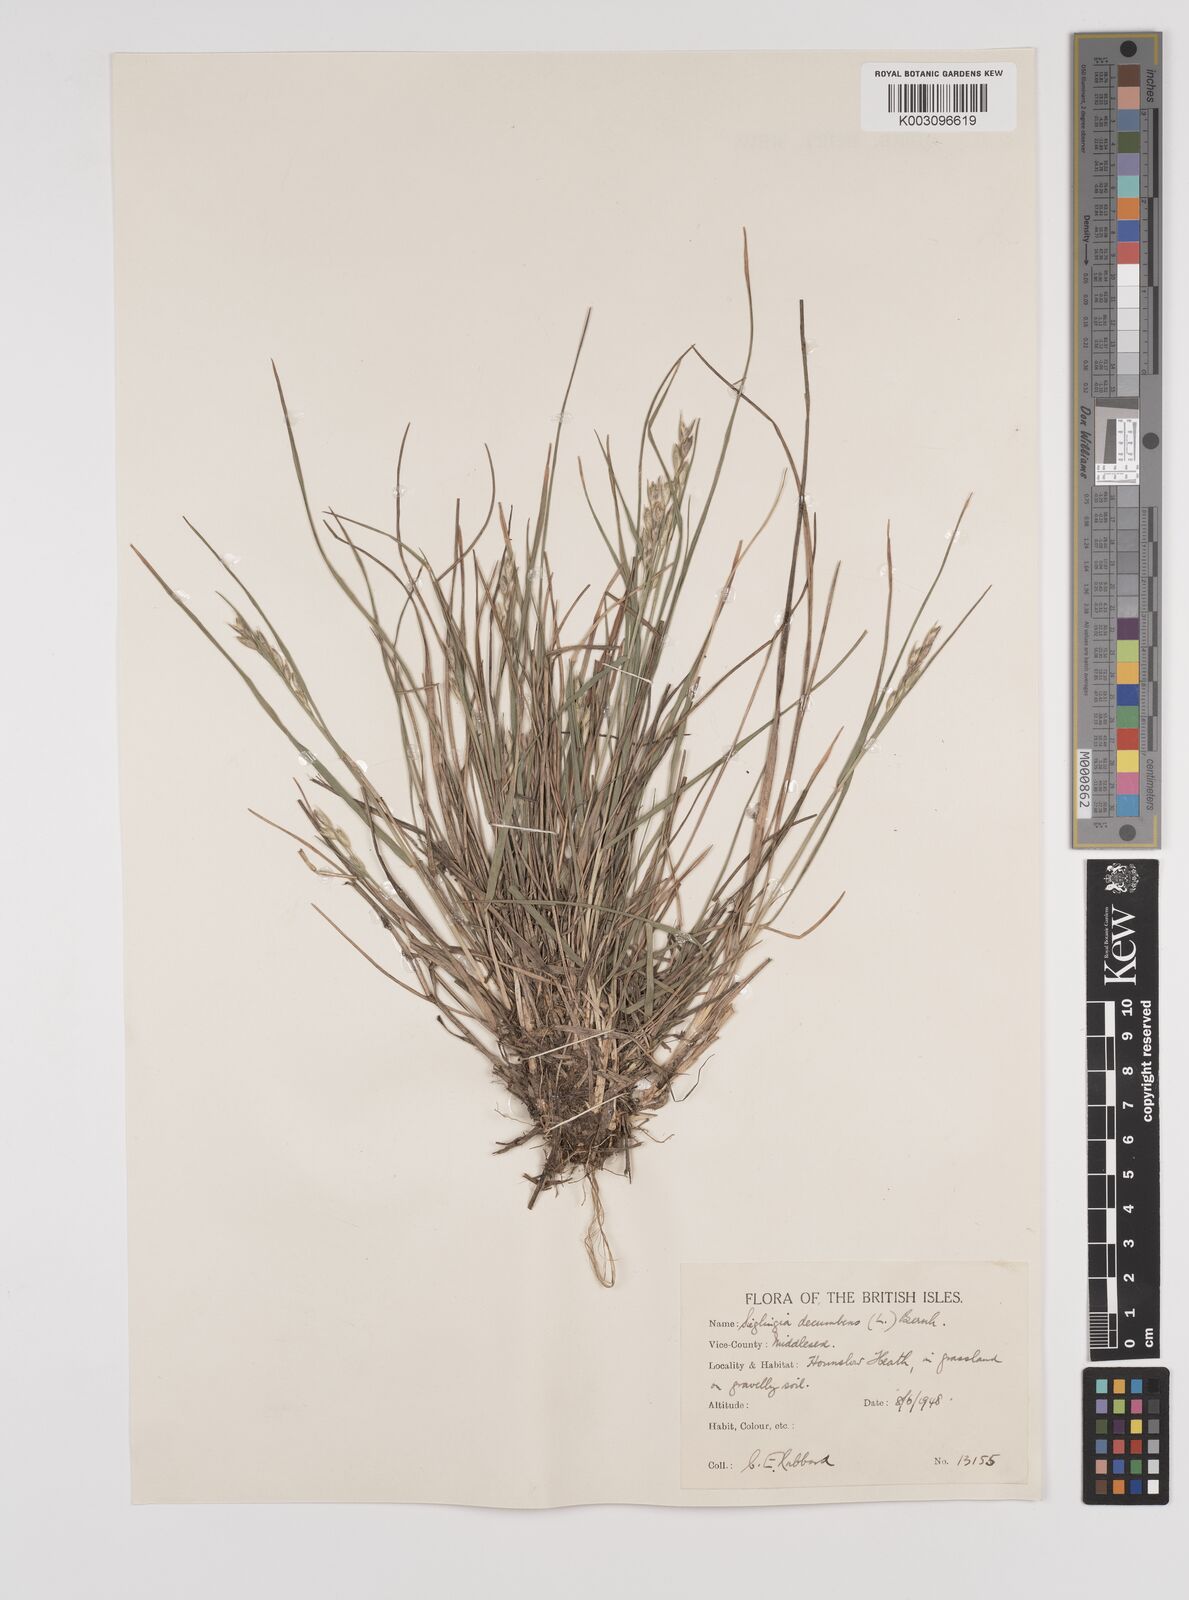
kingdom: Plantae
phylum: Tracheophyta
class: Liliopsida
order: Poales
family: Poaceae
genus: Danthonia
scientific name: Danthonia decumbens
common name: Common heathgrass
